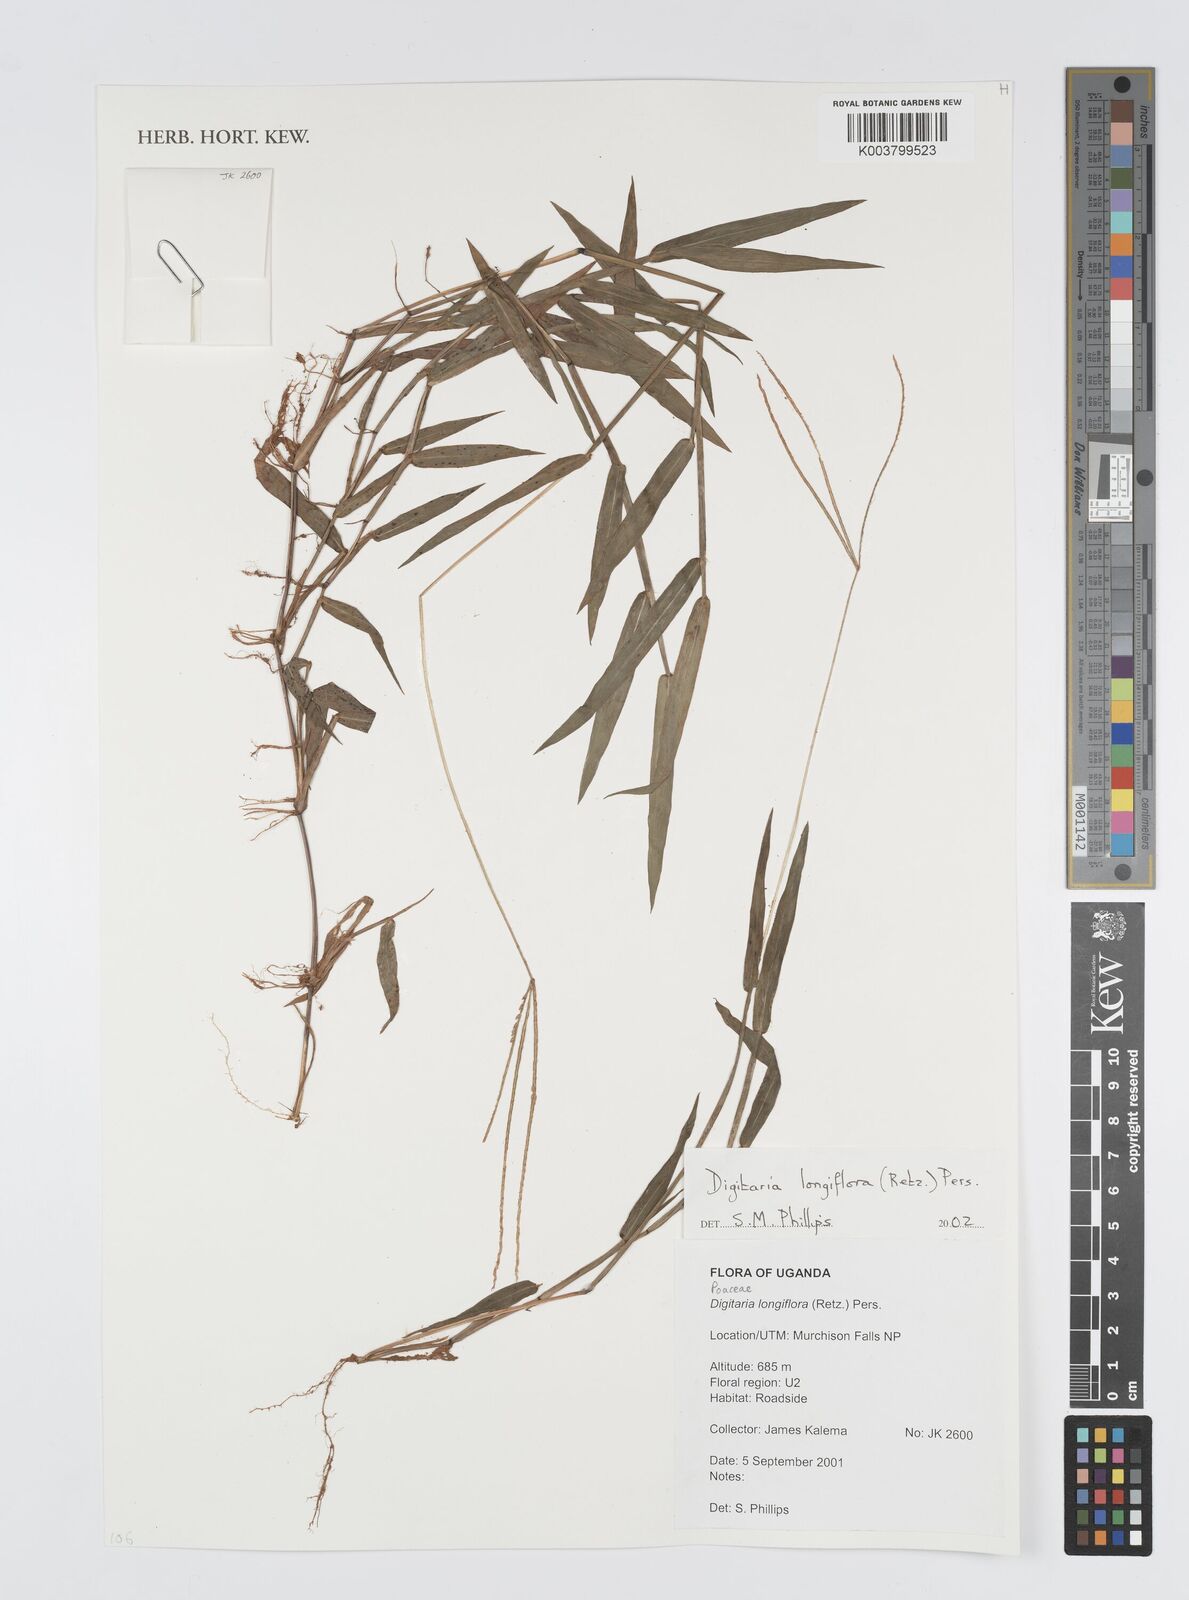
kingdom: Plantae
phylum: Tracheophyta
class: Liliopsida
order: Poales
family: Poaceae
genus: Digitaria
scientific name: Digitaria longiflora
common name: Wire crabgrass
